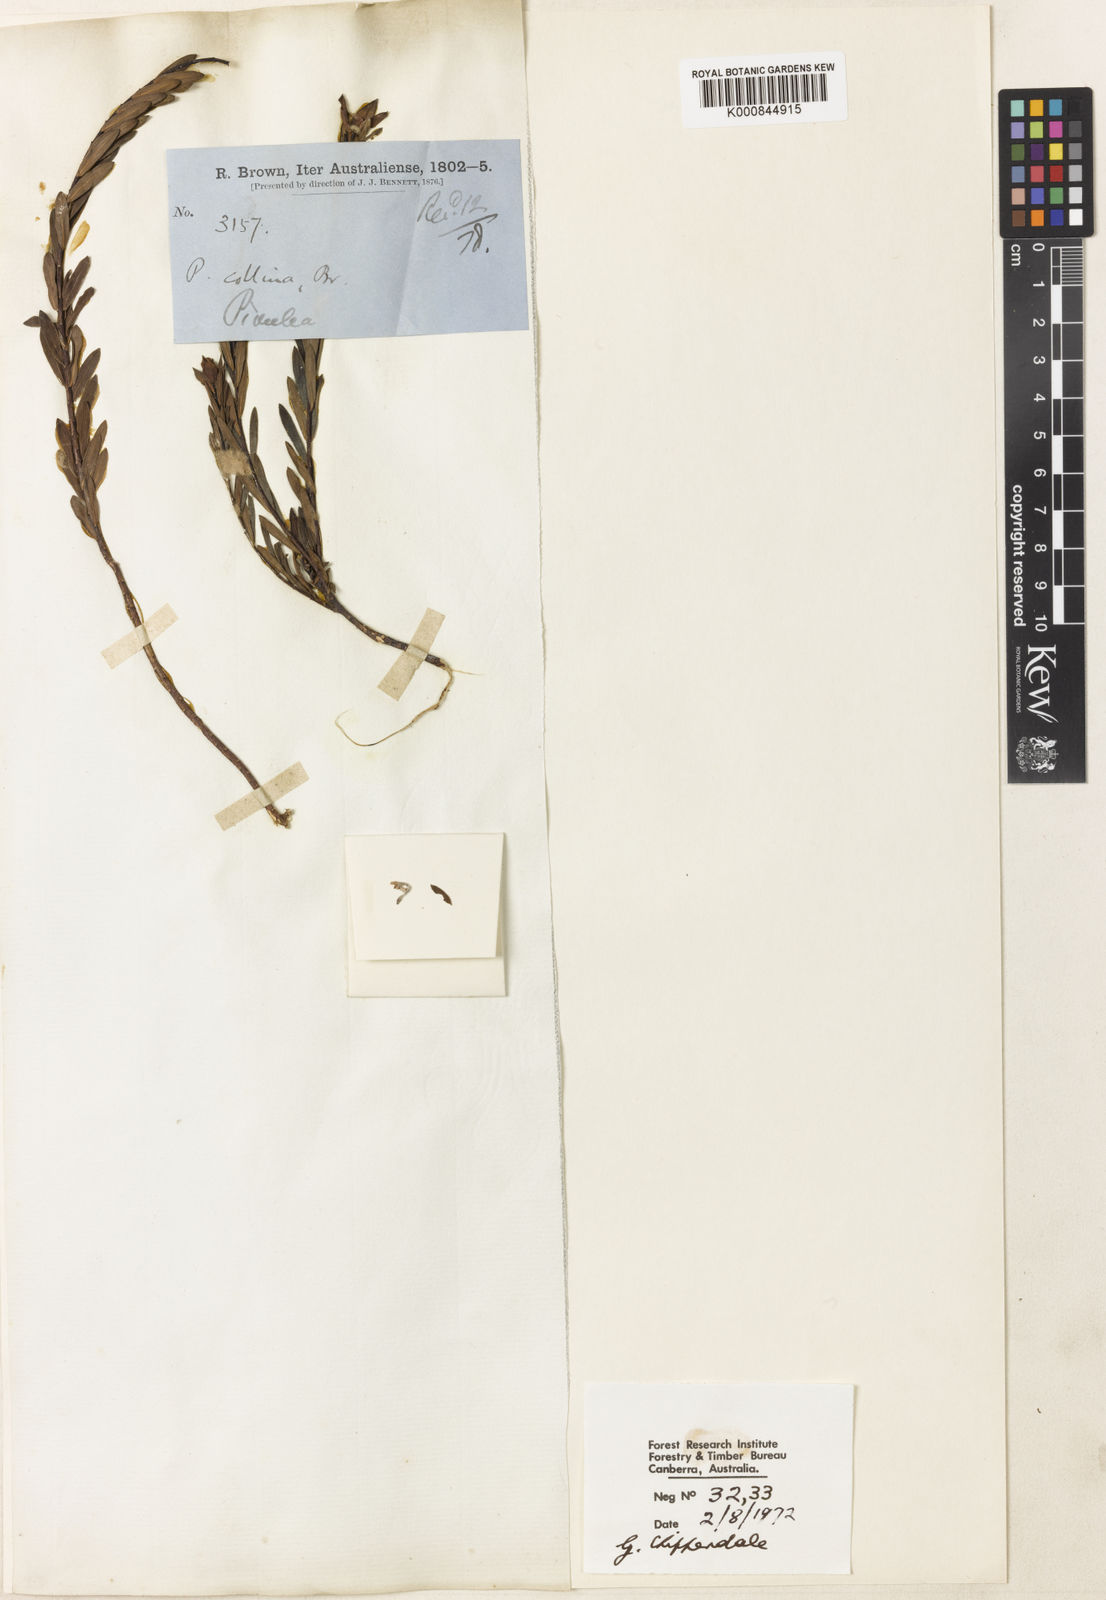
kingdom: Plantae
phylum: Tracheophyta
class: Magnoliopsida
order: Malvales
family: Thymelaeaceae
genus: Pimelea
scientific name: Pimelea linifolia
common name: Queen-of-the-bush
